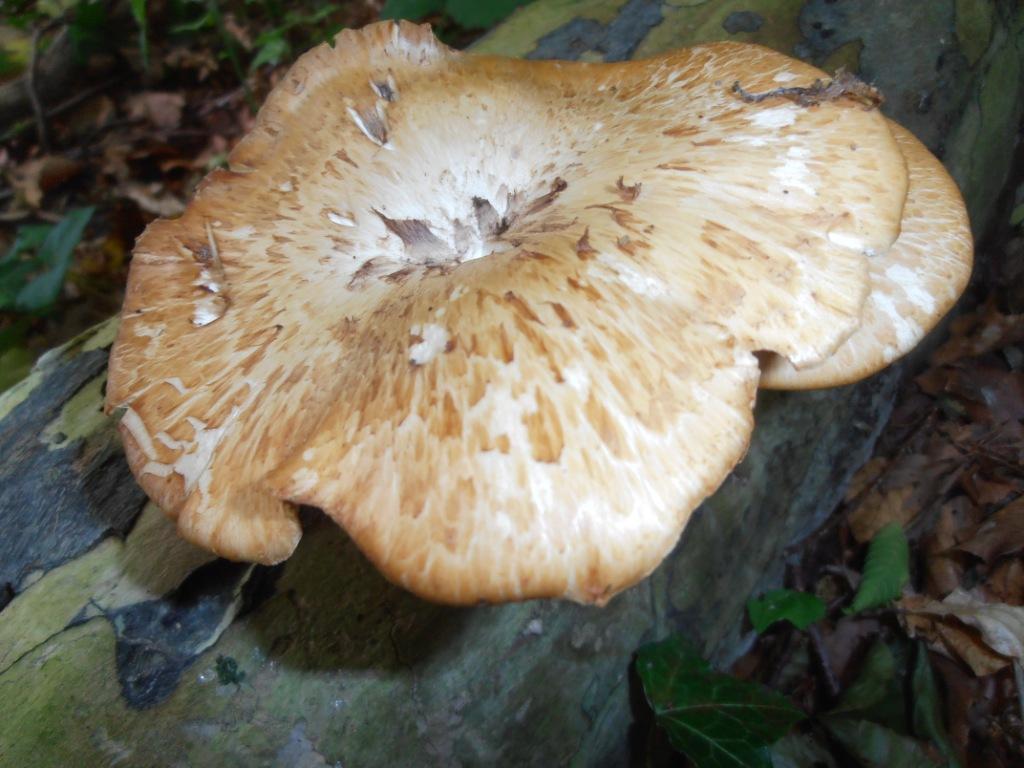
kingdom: Fungi
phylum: Basidiomycota
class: Agaricomycetes
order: Polyporales
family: Polyporaceae
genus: Polyporus
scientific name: Polyporus tuberaster
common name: knoldet stilkporesvamp
